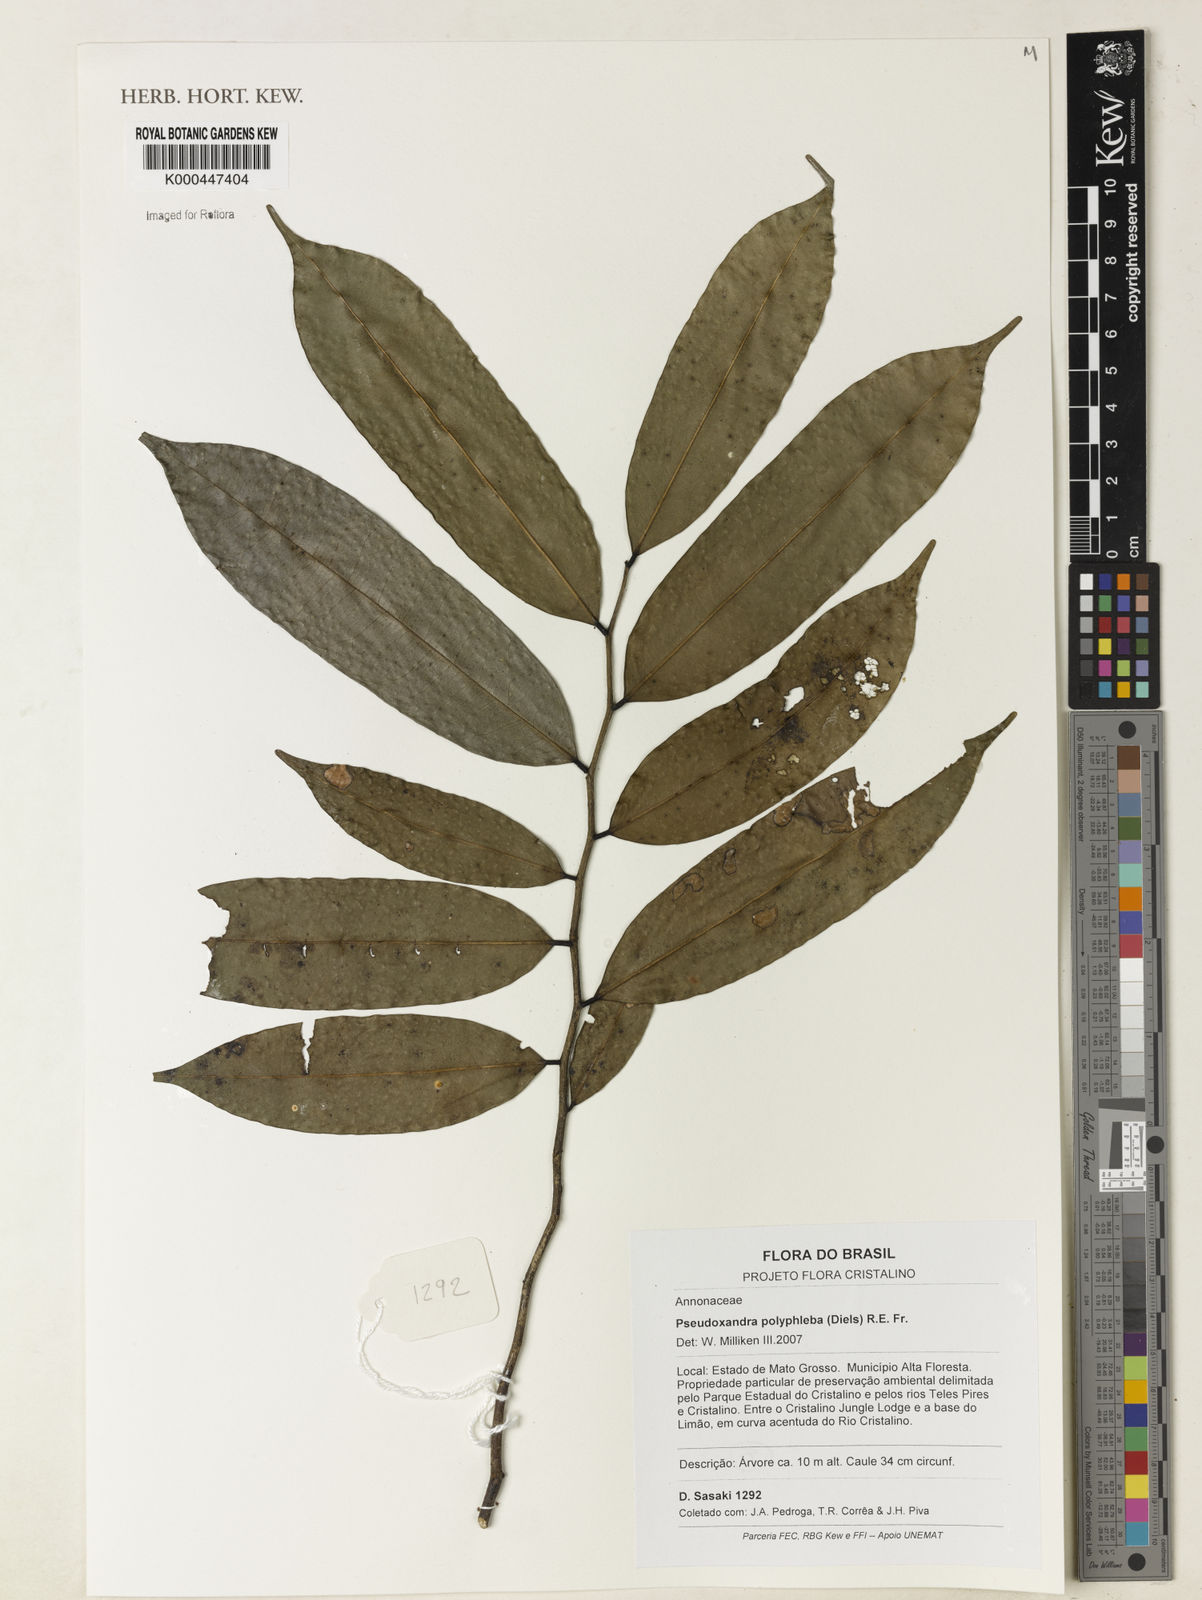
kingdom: Plantae
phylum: Tracheophyta
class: Magnoliopsida
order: Magnoliales
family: Annonaceae
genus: Pseudoxandra
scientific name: Pseudoxandra polyphleba
